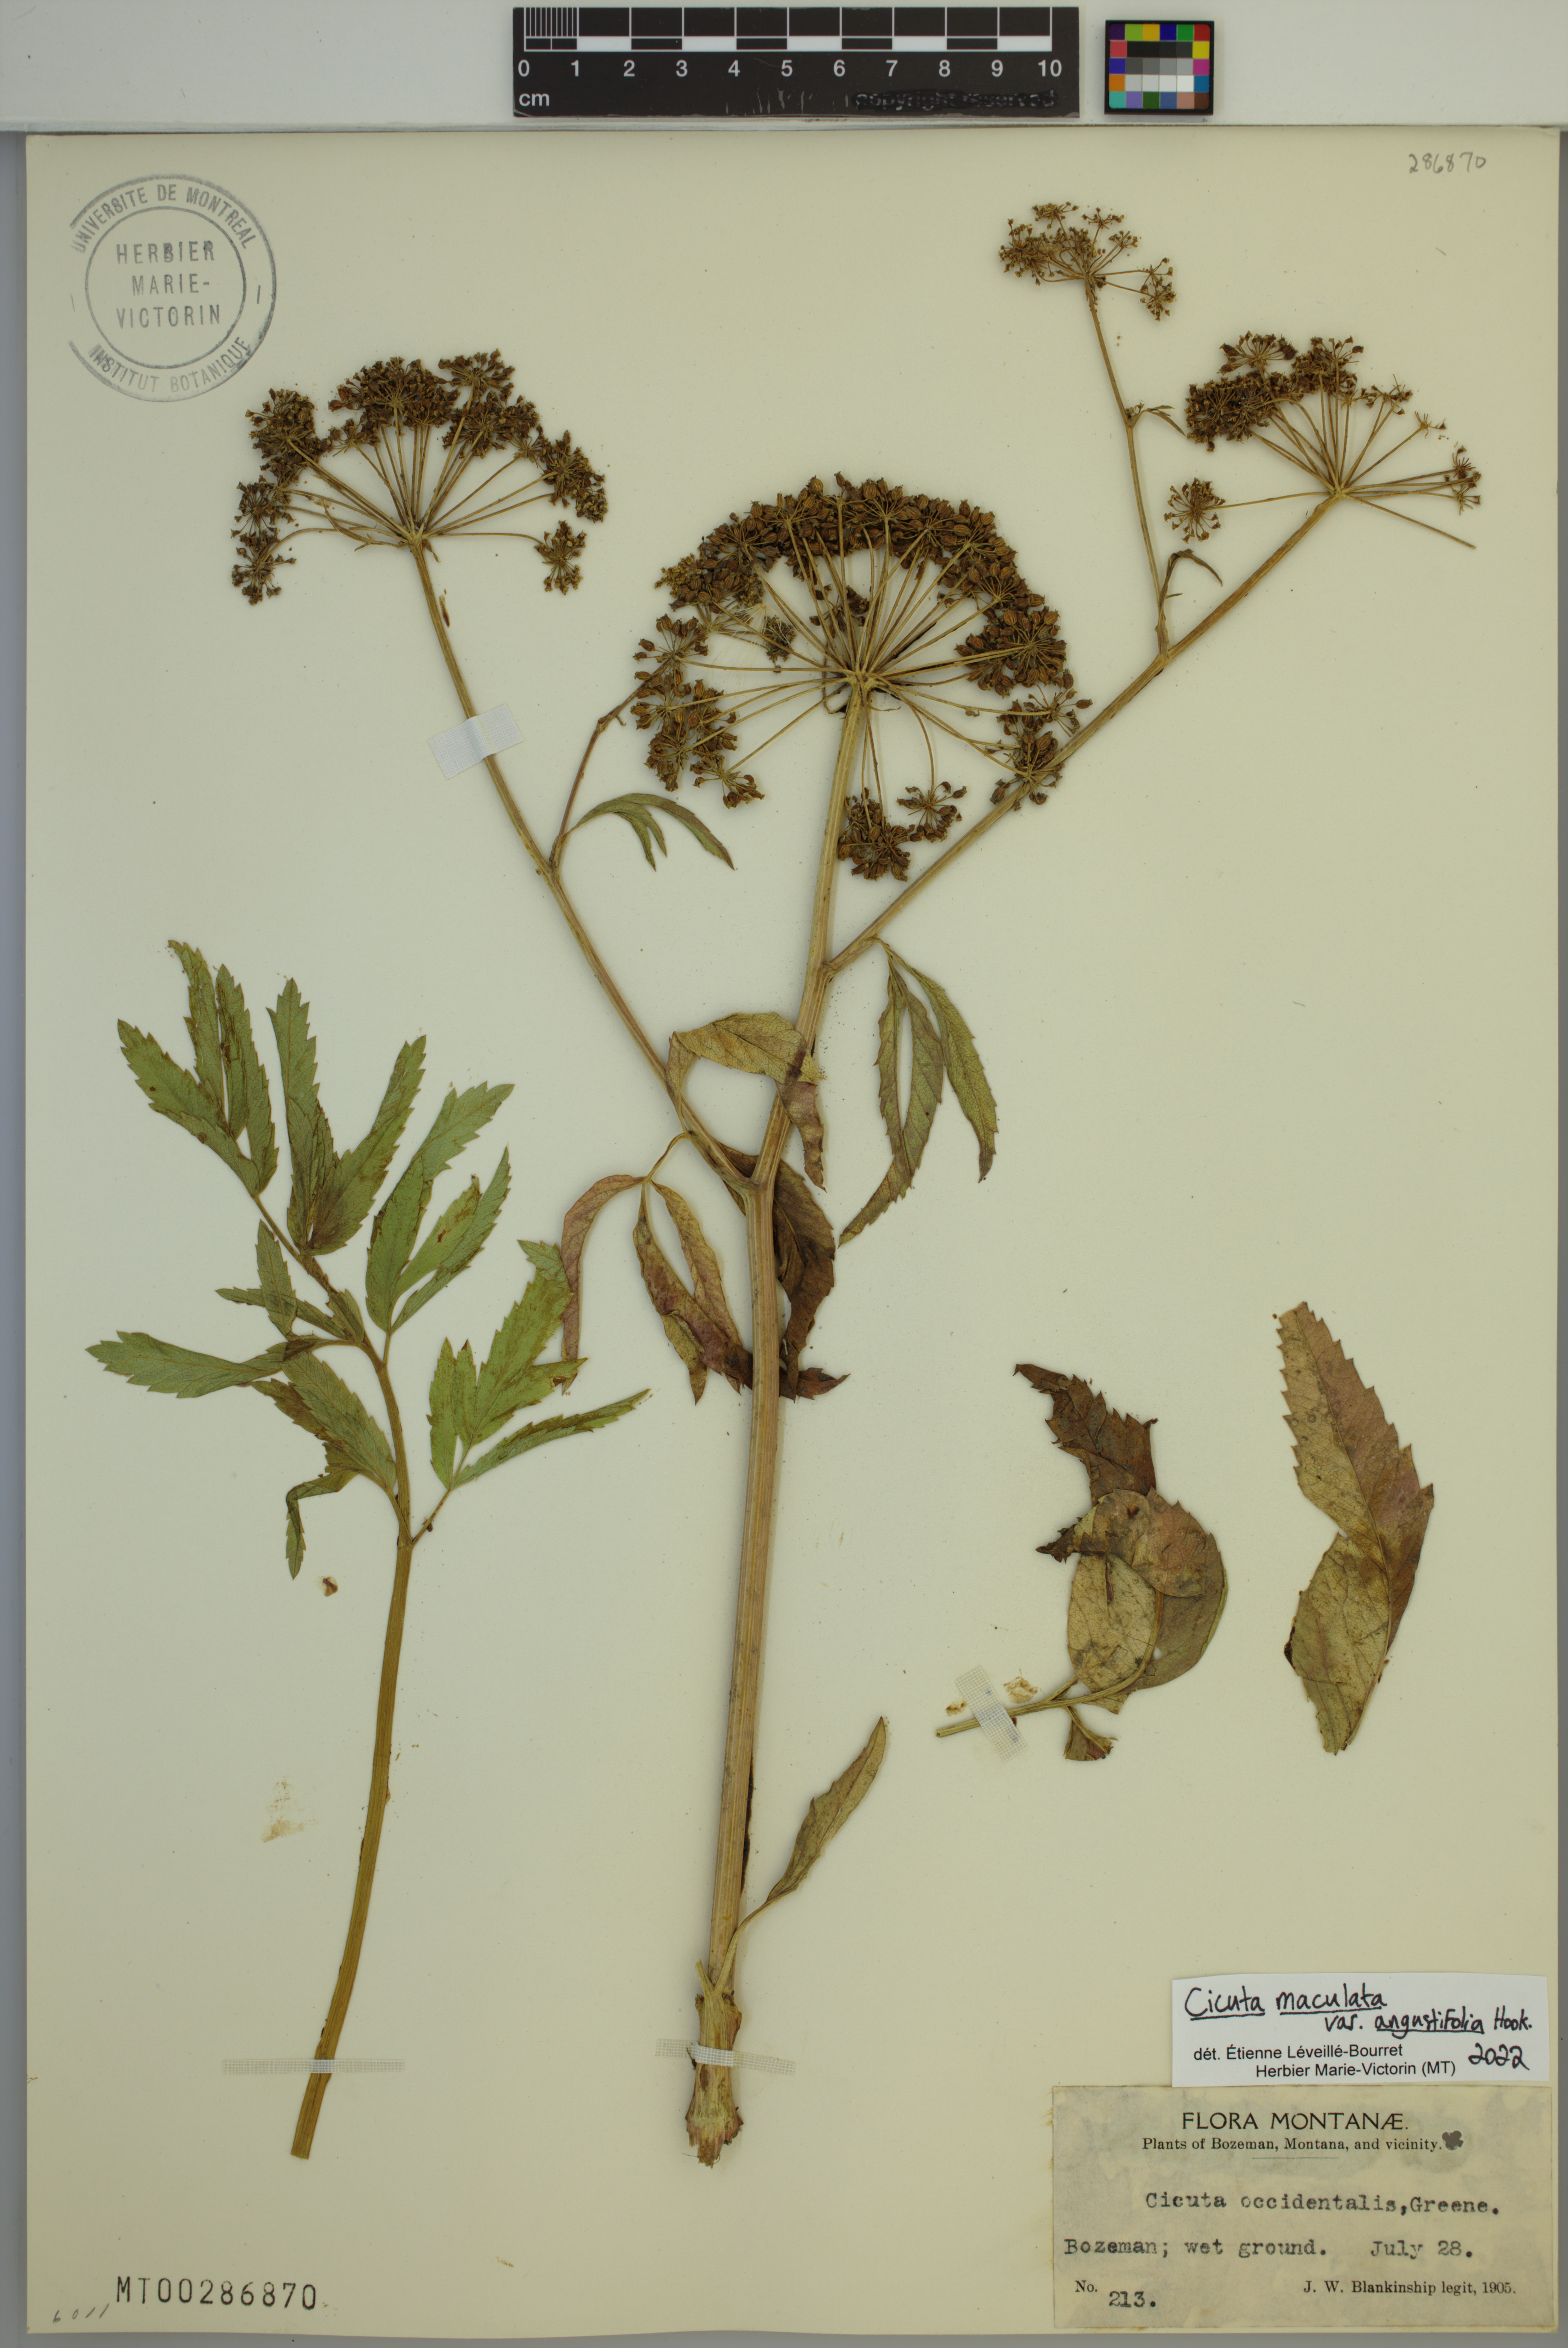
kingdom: Plantae
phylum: Tracheophyta
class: Magnoliopsida
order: Apiales
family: Apiaceae
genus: Cicuta
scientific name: Cicuta maculata
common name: Spotted cowbane
